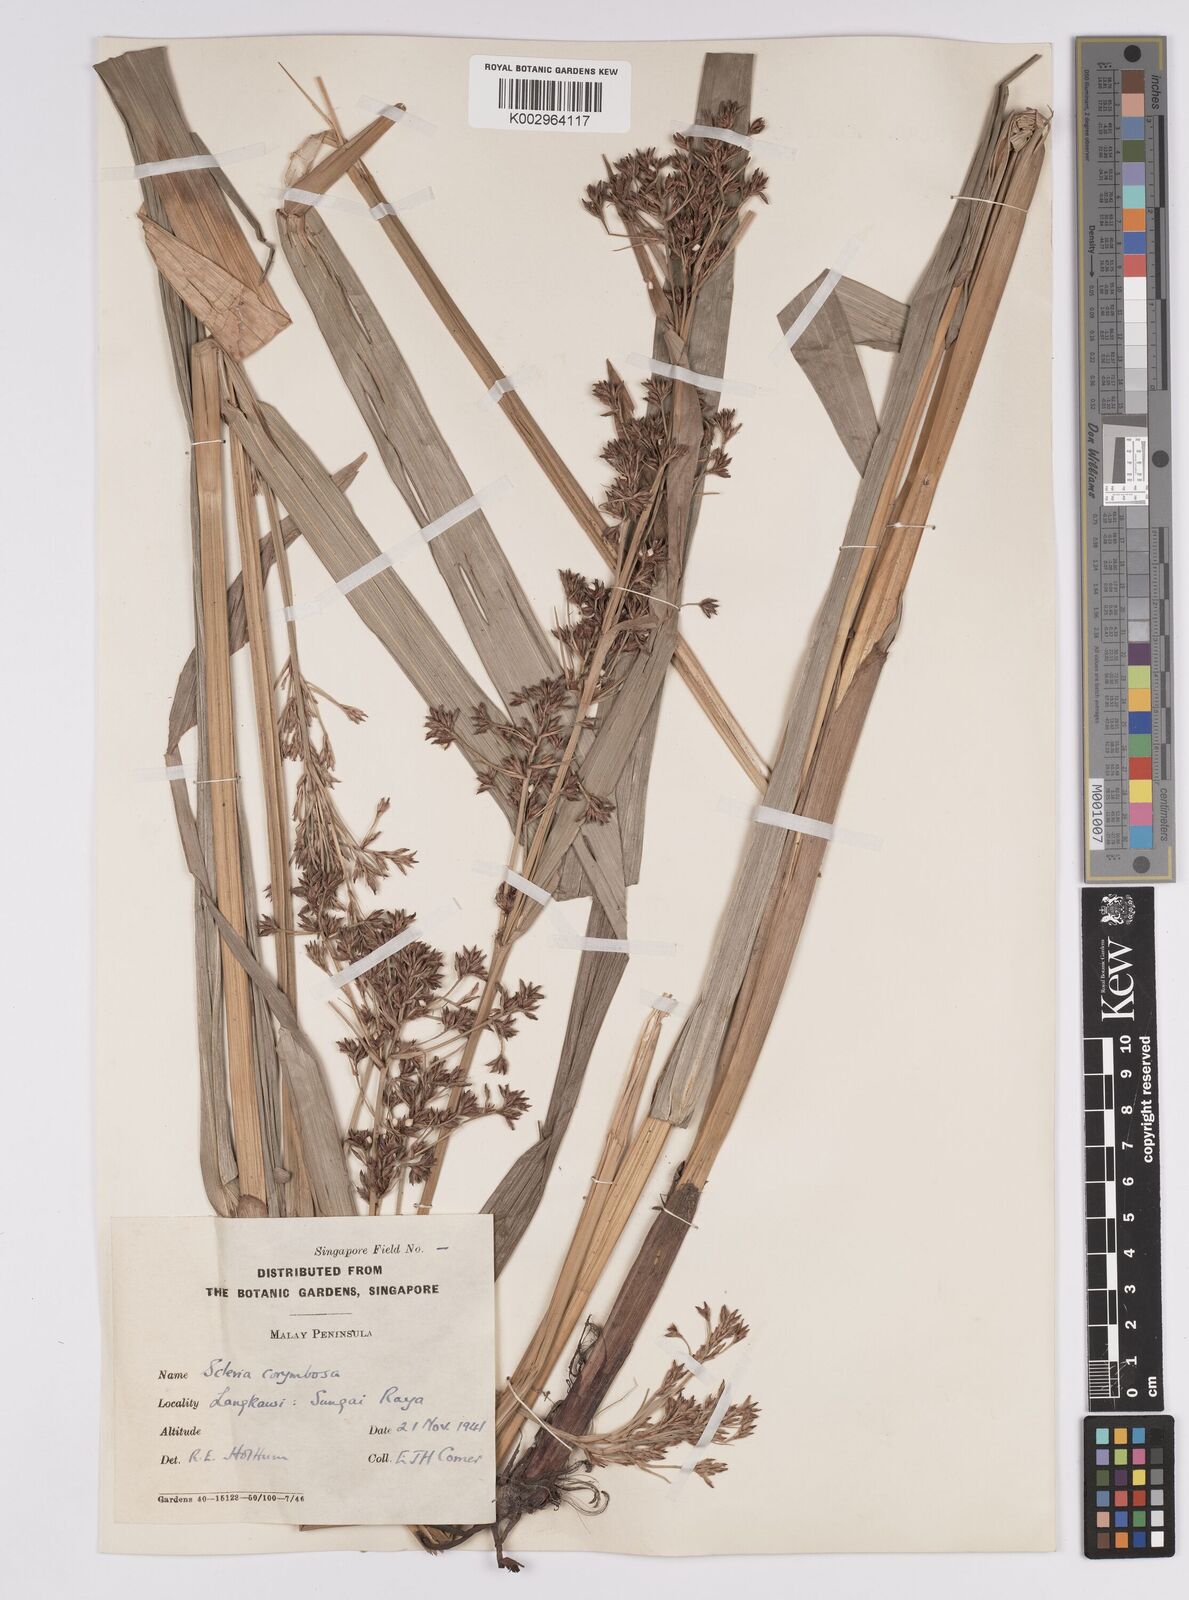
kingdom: Plantae
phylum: Tracheophyta
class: Liliopsida
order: Poales
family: Cyperaceae
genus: Scleria
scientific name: Scleria corymbosa
